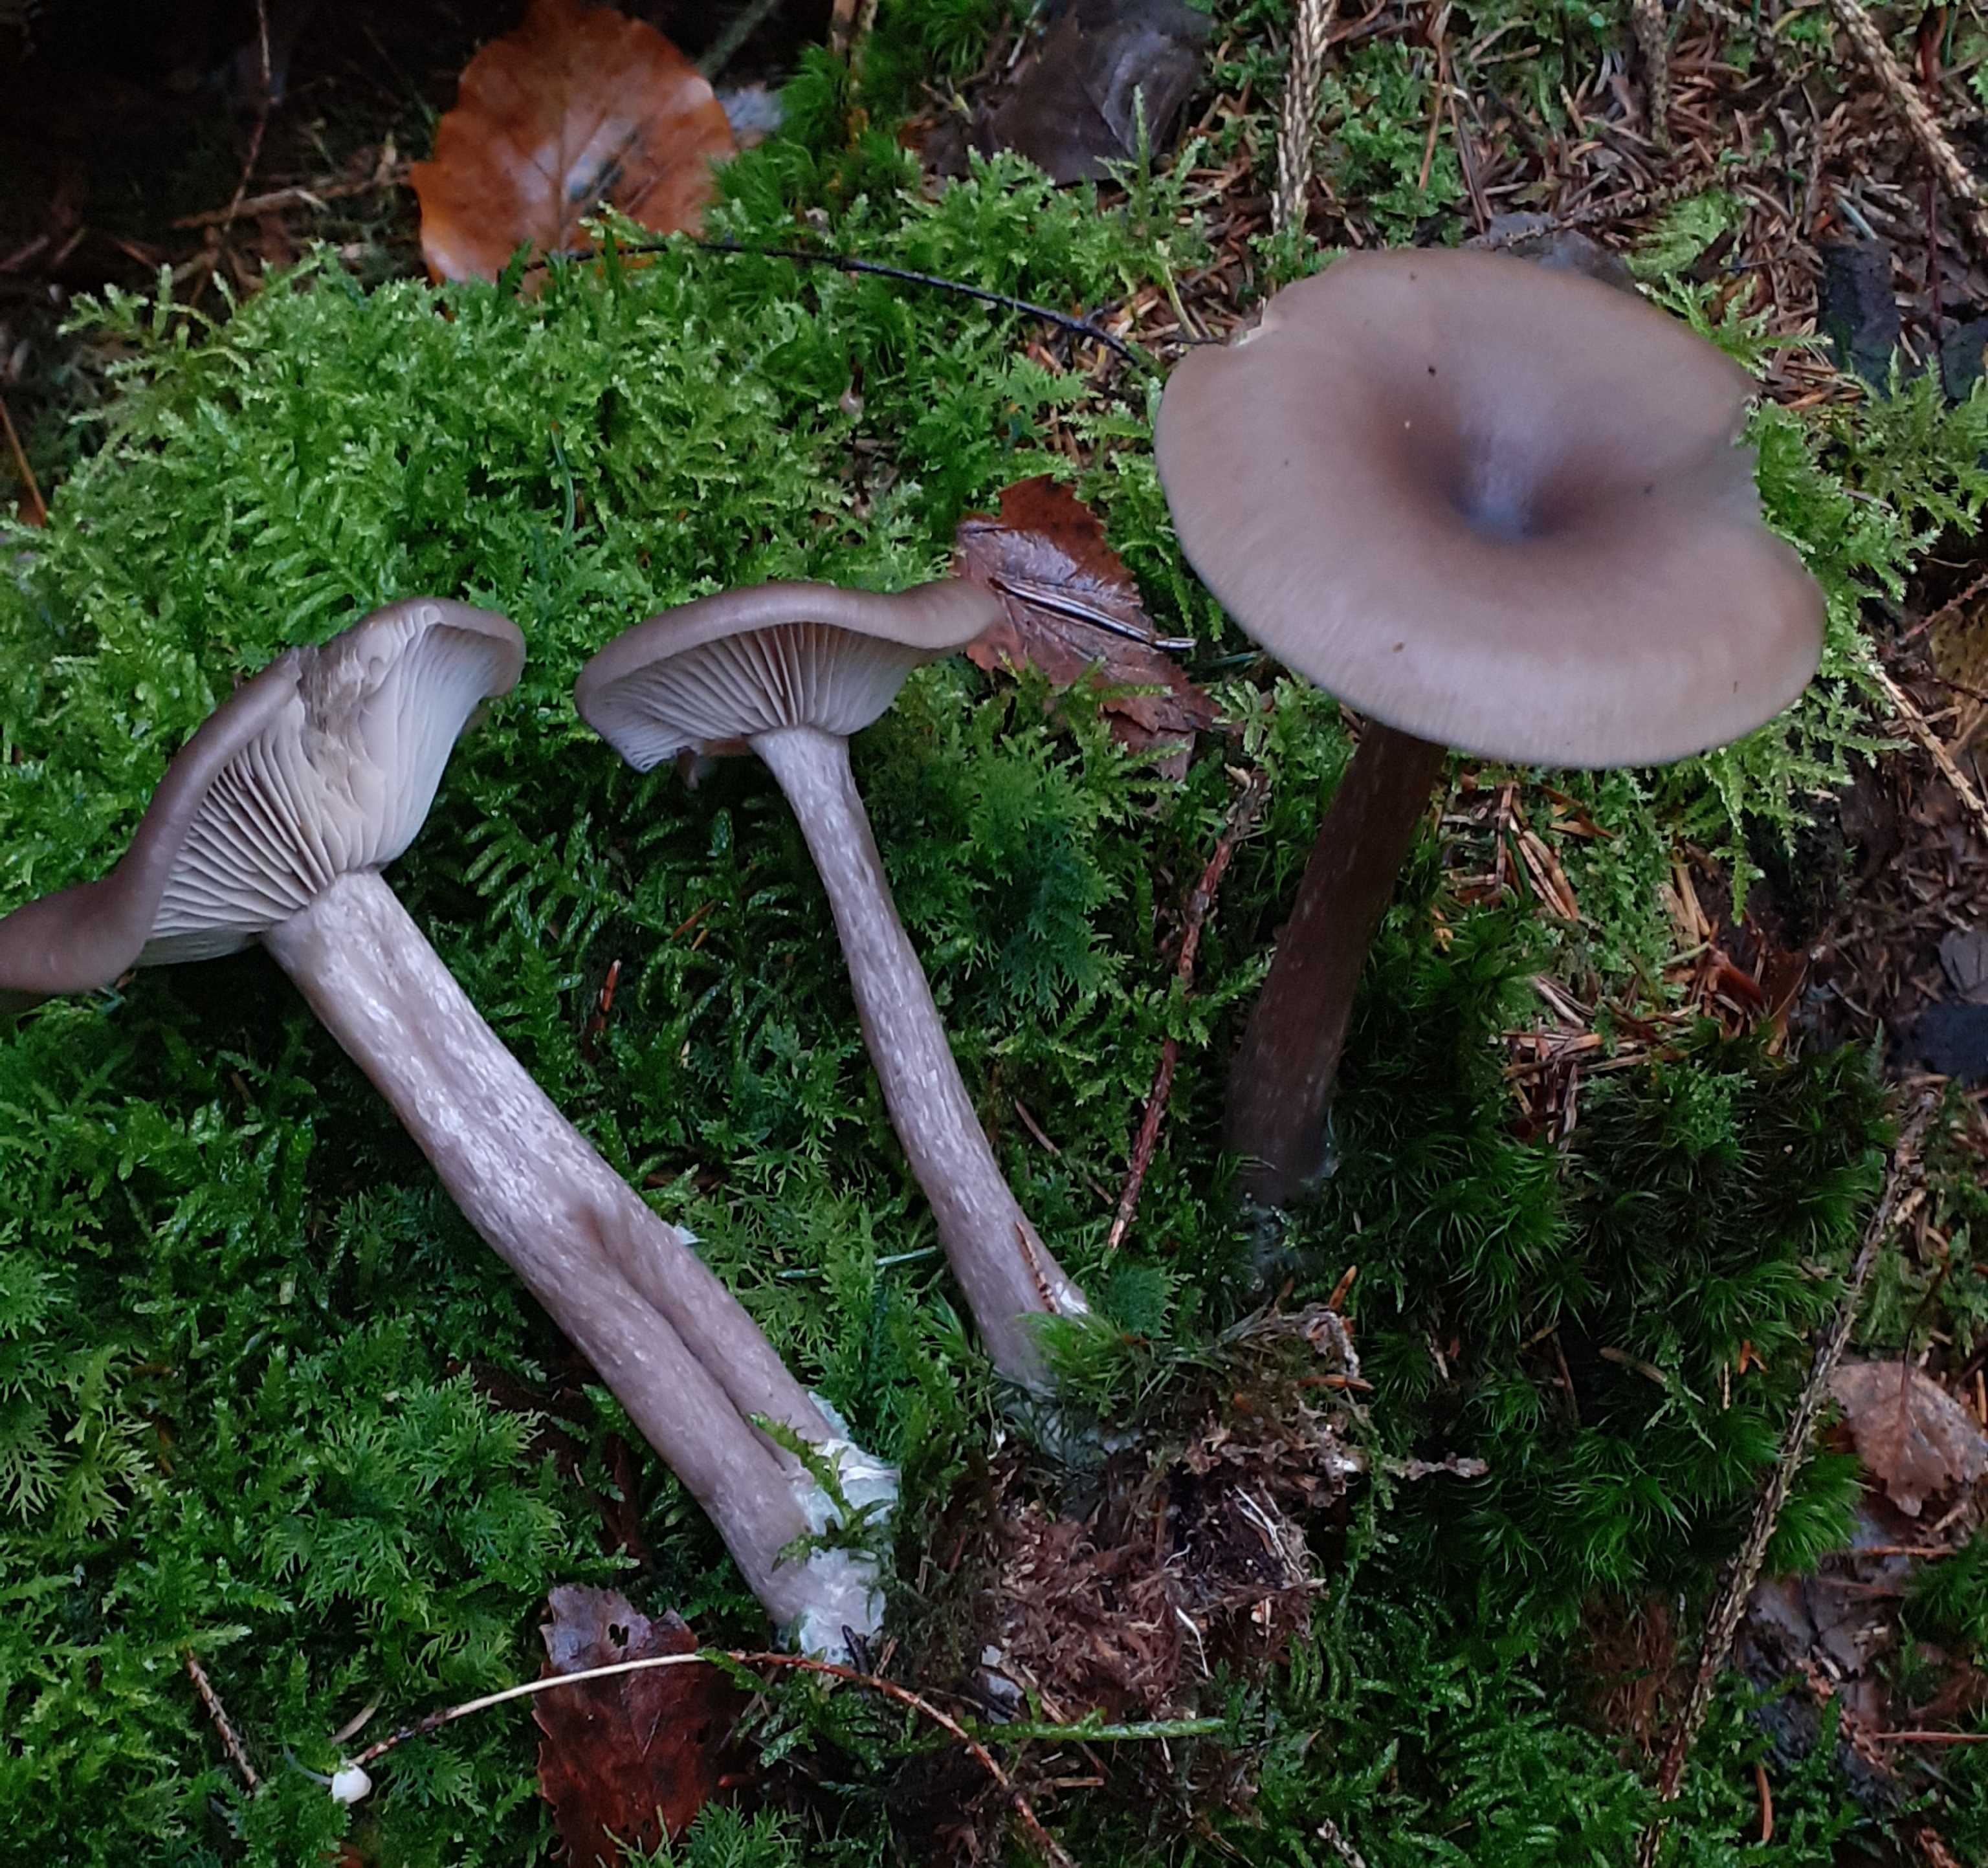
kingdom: Fungi
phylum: Basidiomycota
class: Agaricomycetes
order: Agaricales
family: Pseudoclitocybaceae
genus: Pseudoclitocybe
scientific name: Pseudoclitocybe cyathiformis
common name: almindelig bægertragthat
